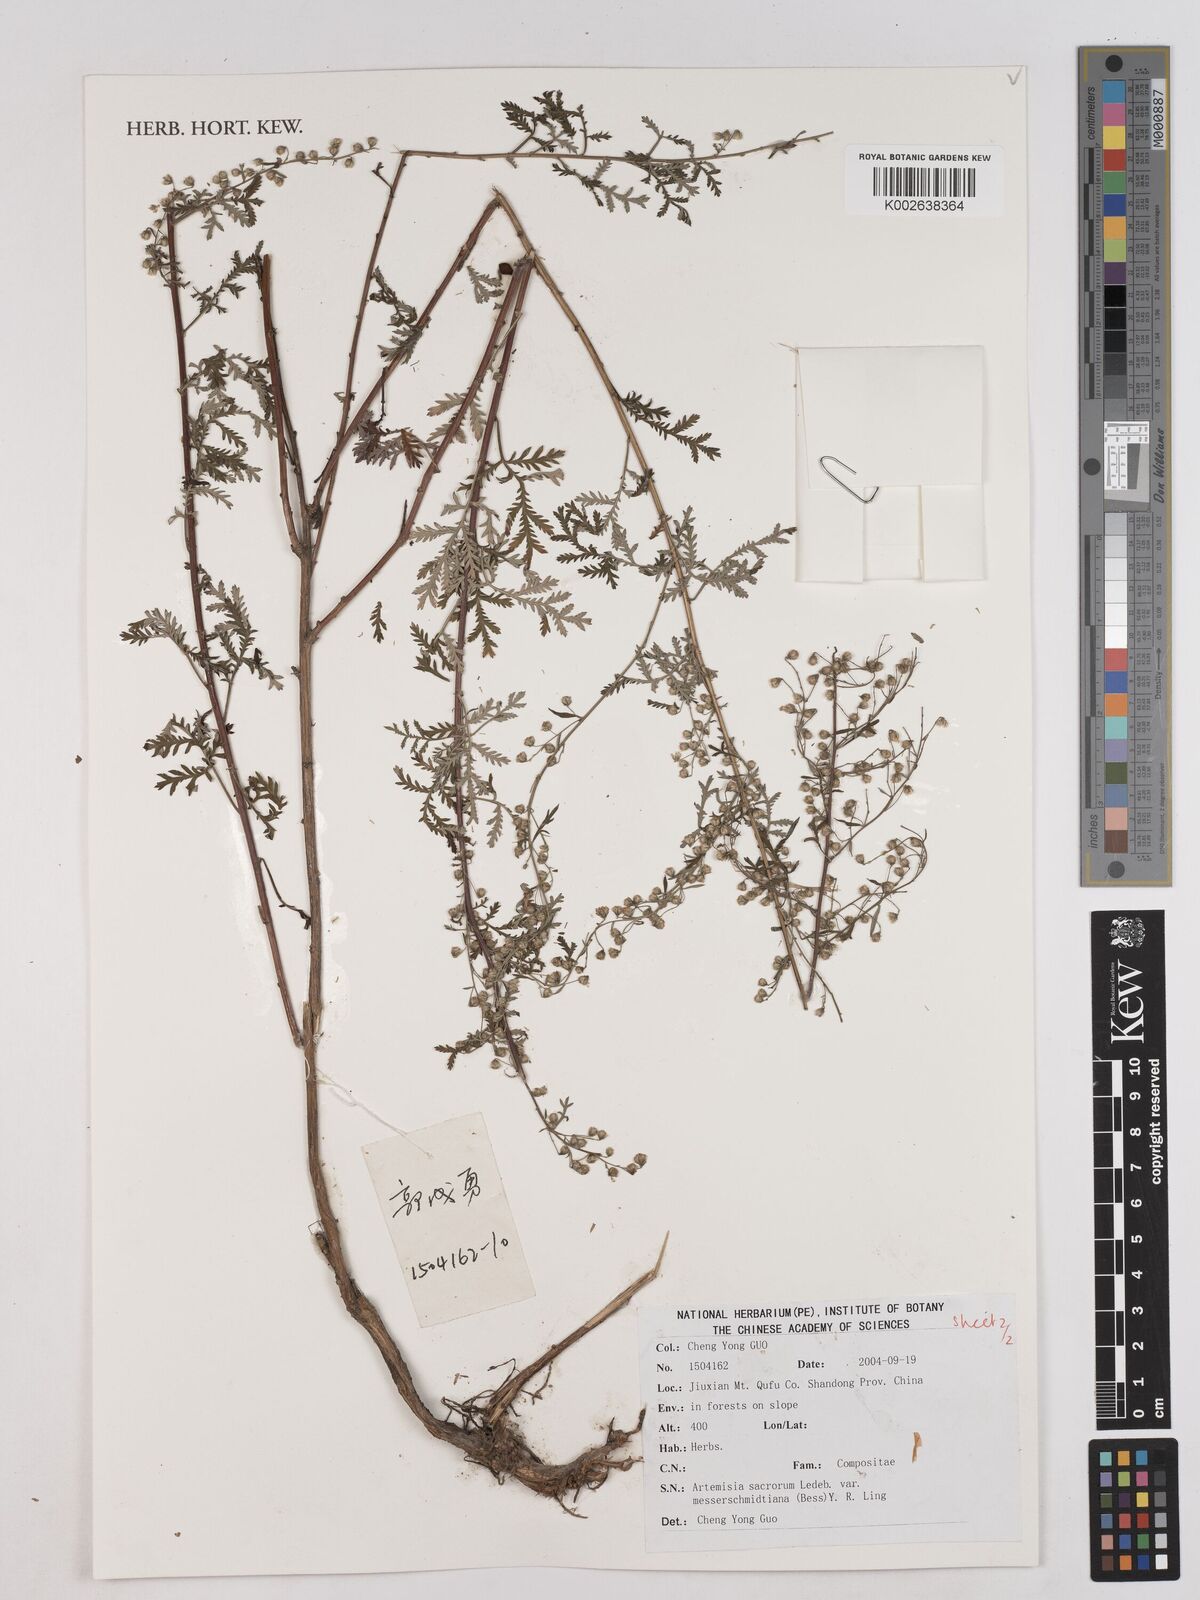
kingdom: Plantae
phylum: Tracheophyta
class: Magnoliopsida
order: Asterales
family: Asteraceae
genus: Artemisia
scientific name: Artemisia gmelinii
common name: Gmelin's wormwood
